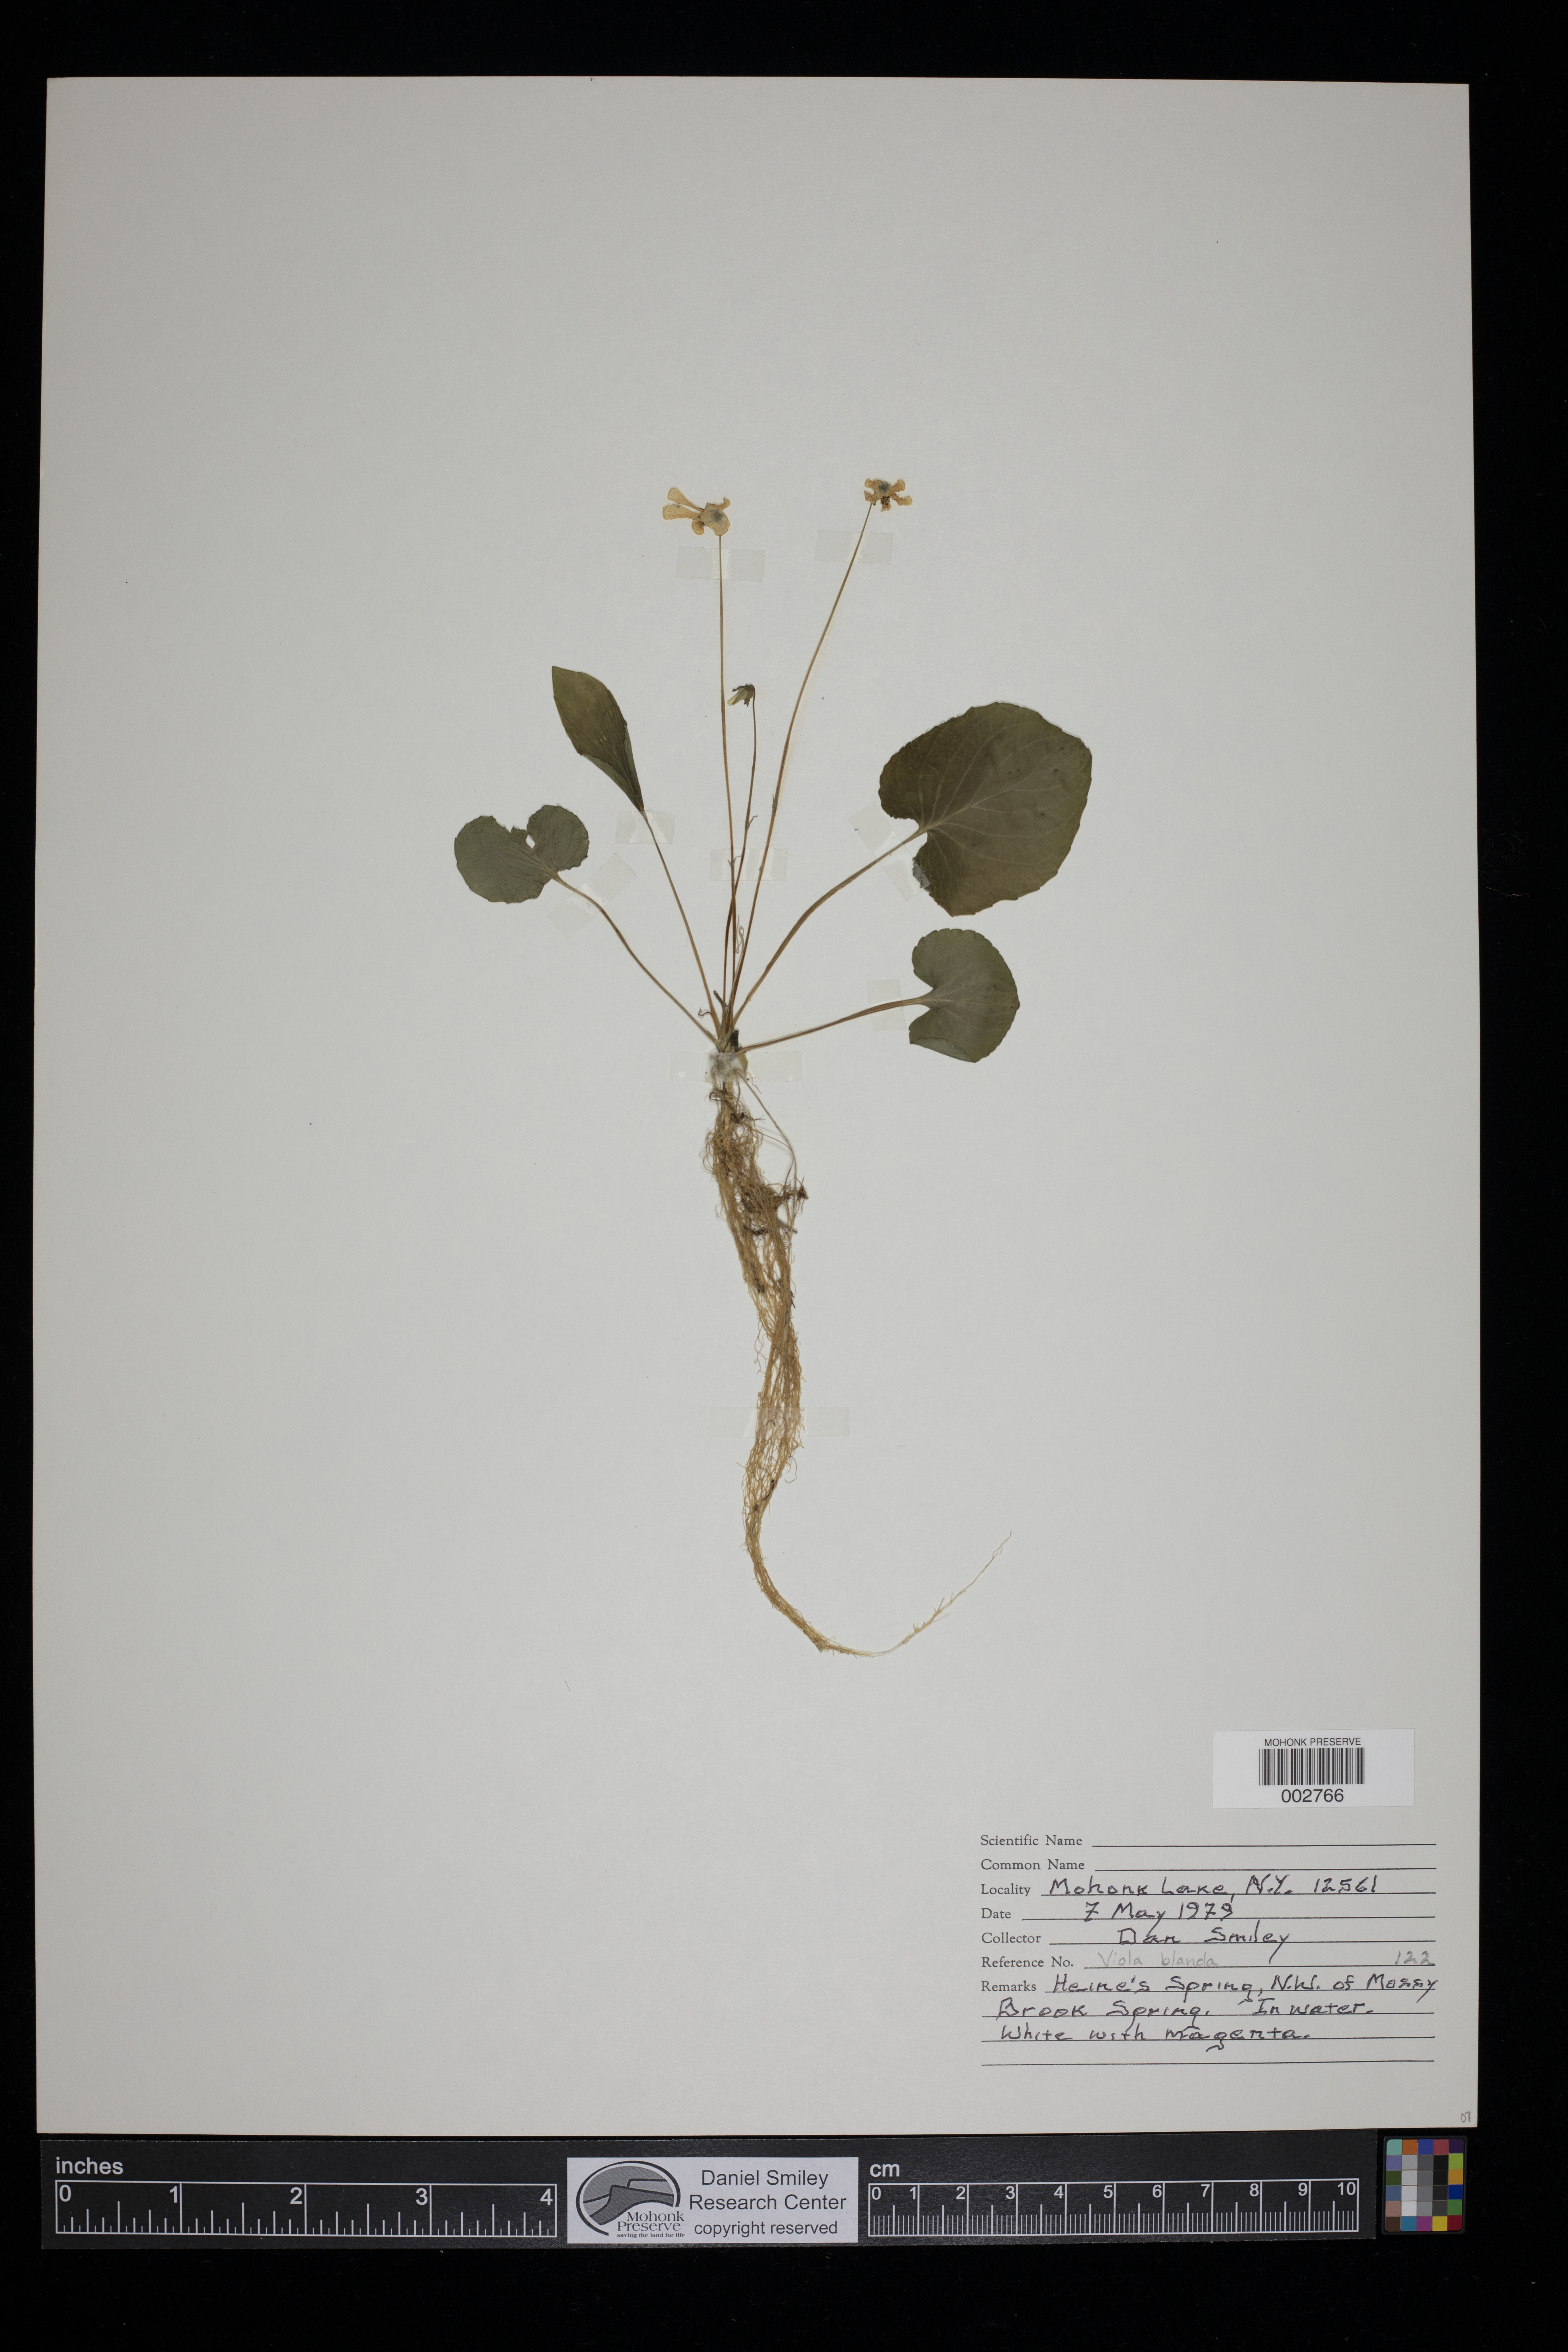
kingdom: Plantae
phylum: Tracheophyta
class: Magnoliopsida
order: Malpighiales
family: Violaceae
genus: Viola
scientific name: Viola blanda
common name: Sweet white violet
